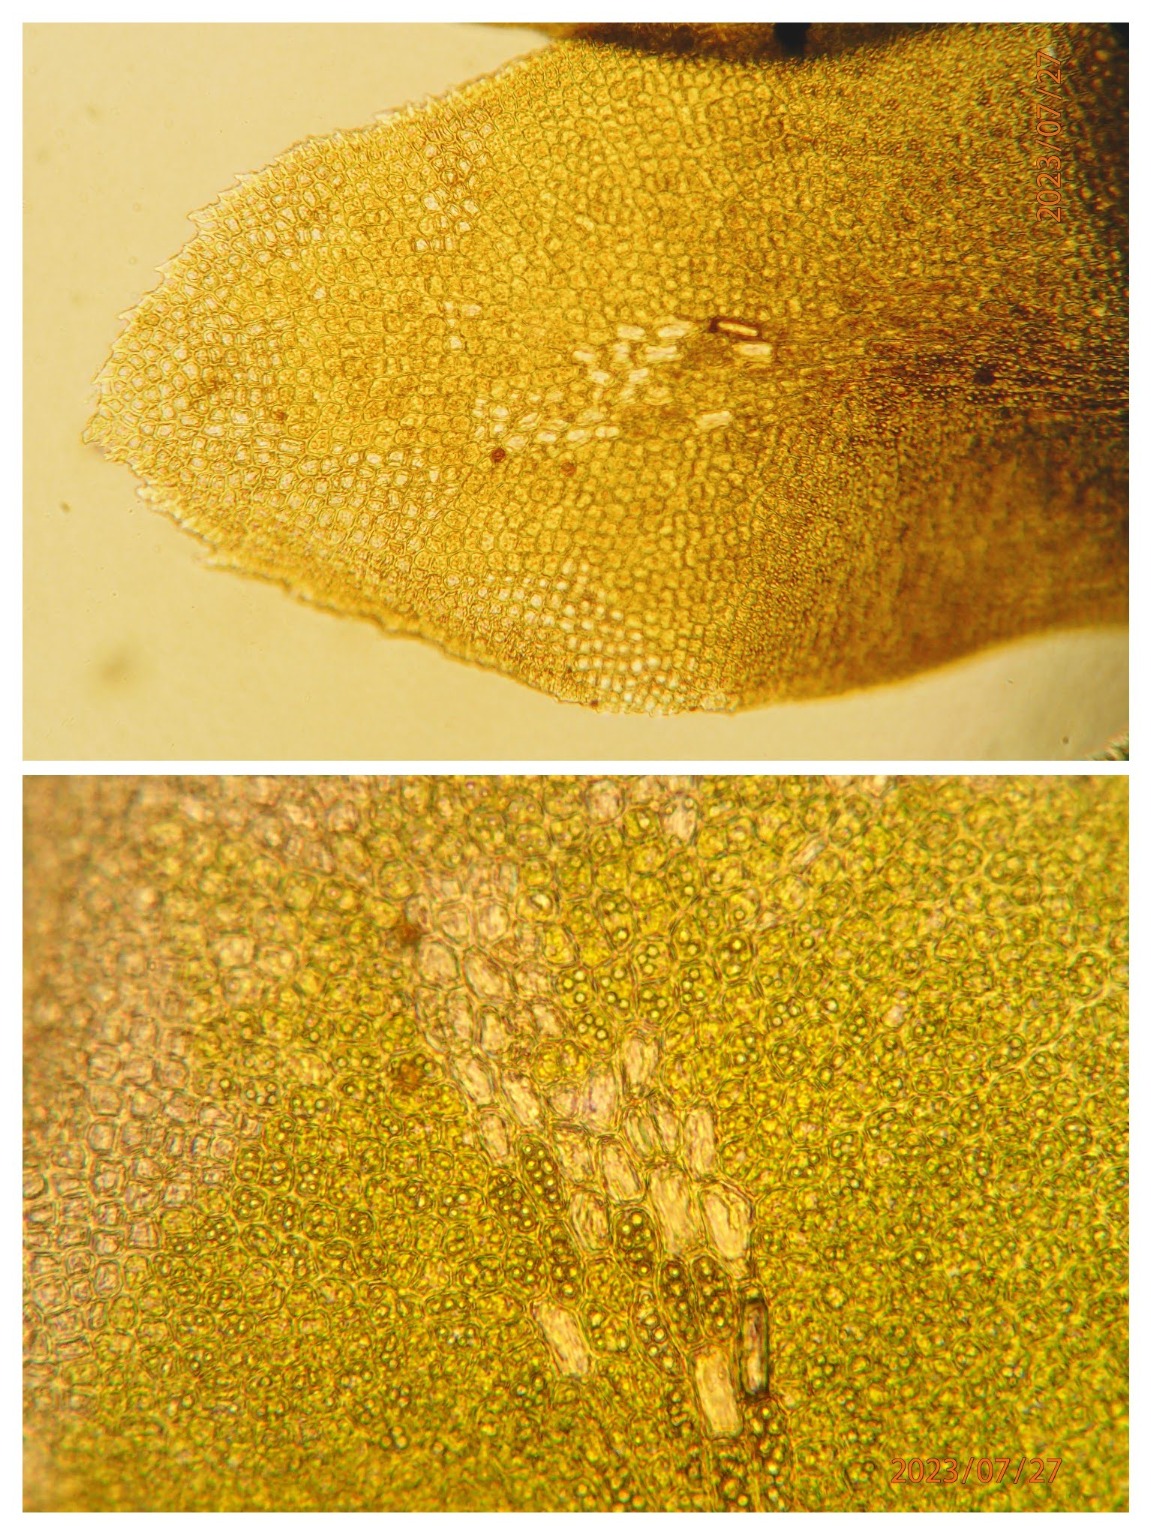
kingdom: Plantae
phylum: Marchantiophyta
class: Jungermanniopsida
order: Jungermanniales
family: Scapaniaceae
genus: Diplophyllum
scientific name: Diplophyllum albicans
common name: Stribet dobbeltblad
